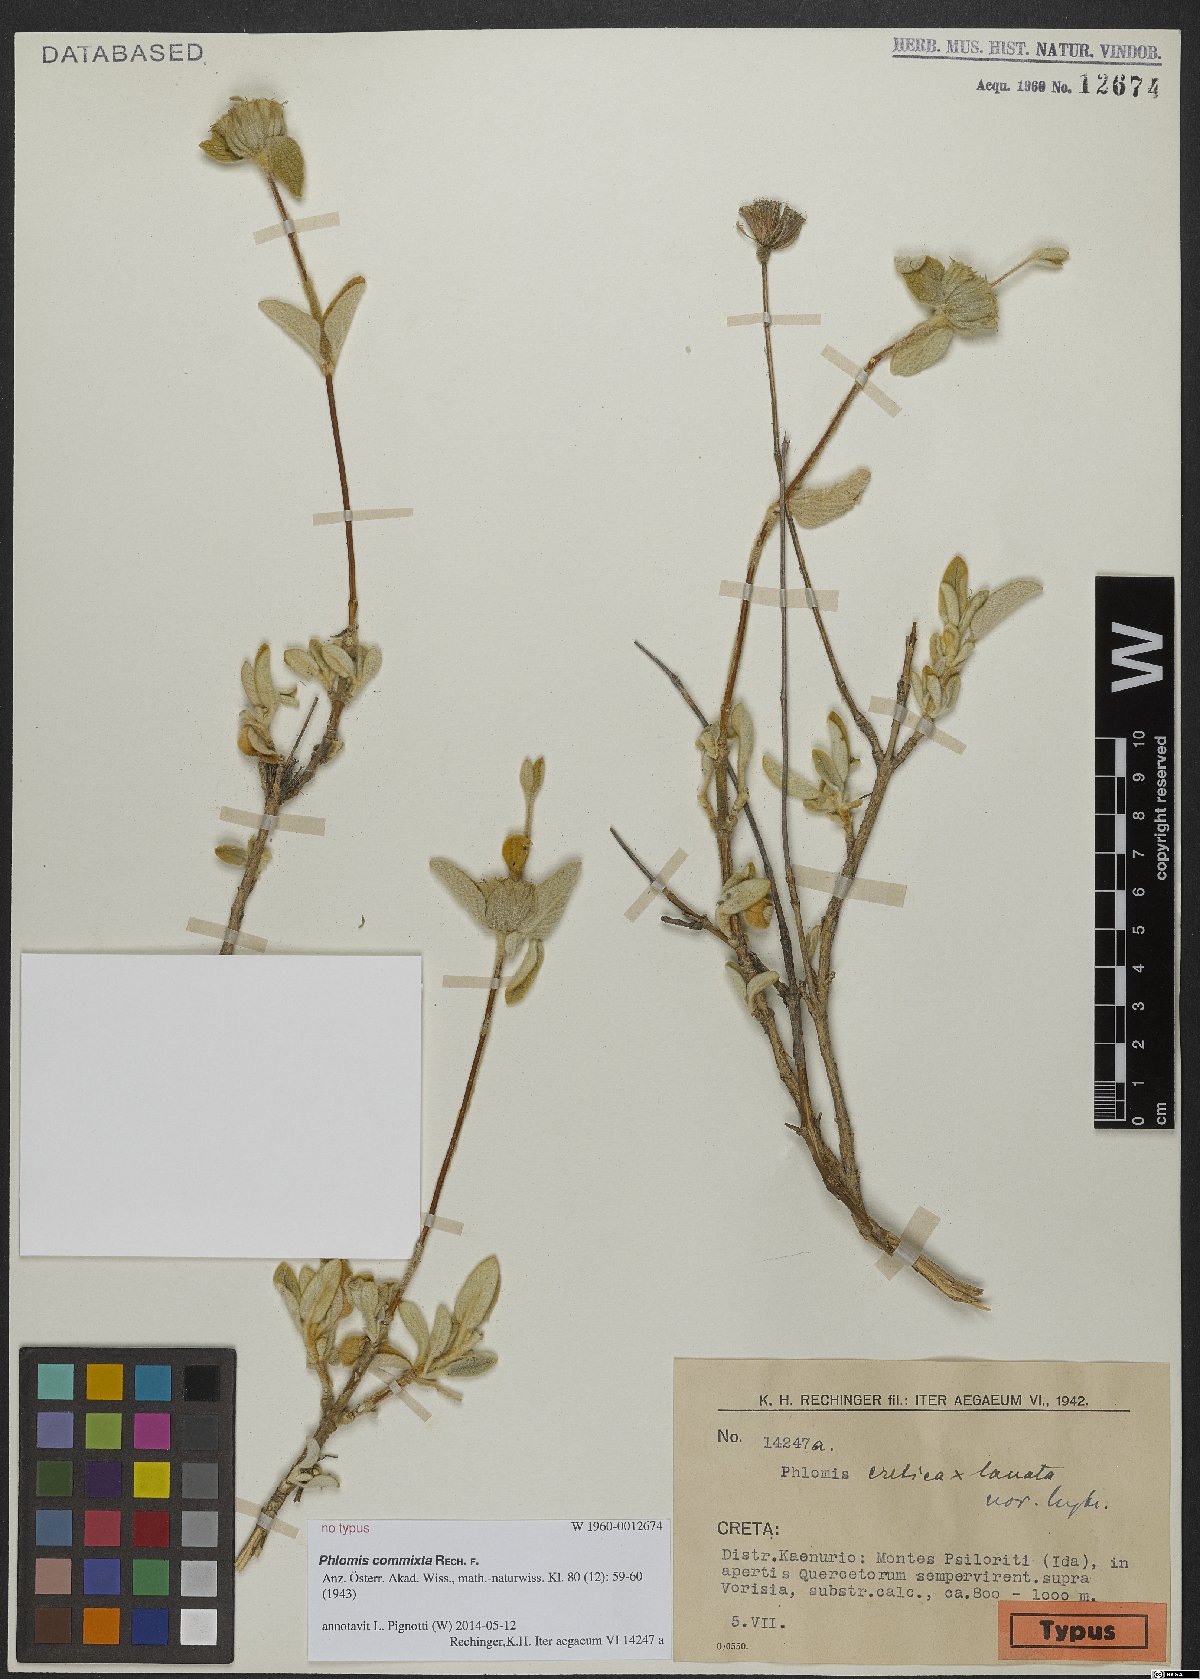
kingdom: Plantae
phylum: Tracheophyta
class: Magnoliopsida
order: Lamiales
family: Lamiaceae
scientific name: Lamiaceae
